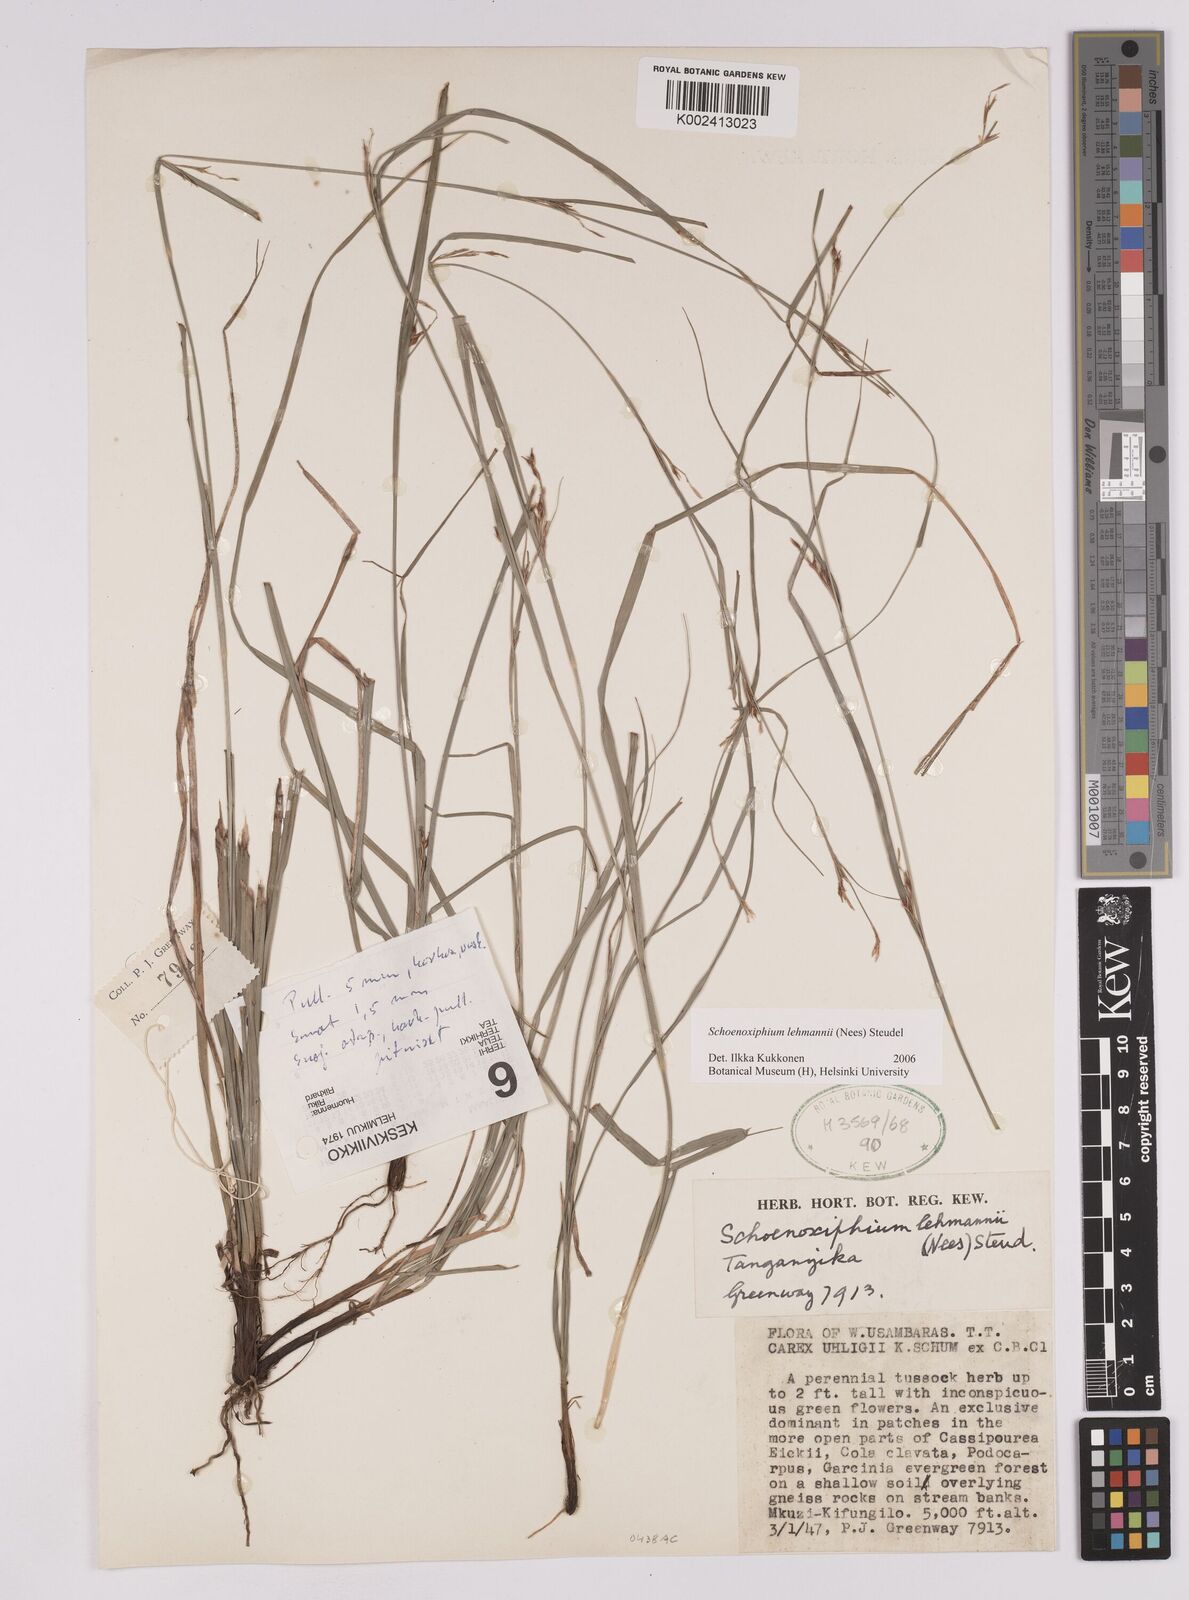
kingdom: Plantae
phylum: Tracheophyta
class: Liliopsida
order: Poales
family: Cyperaceae
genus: Carex
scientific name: Carex uhligii
